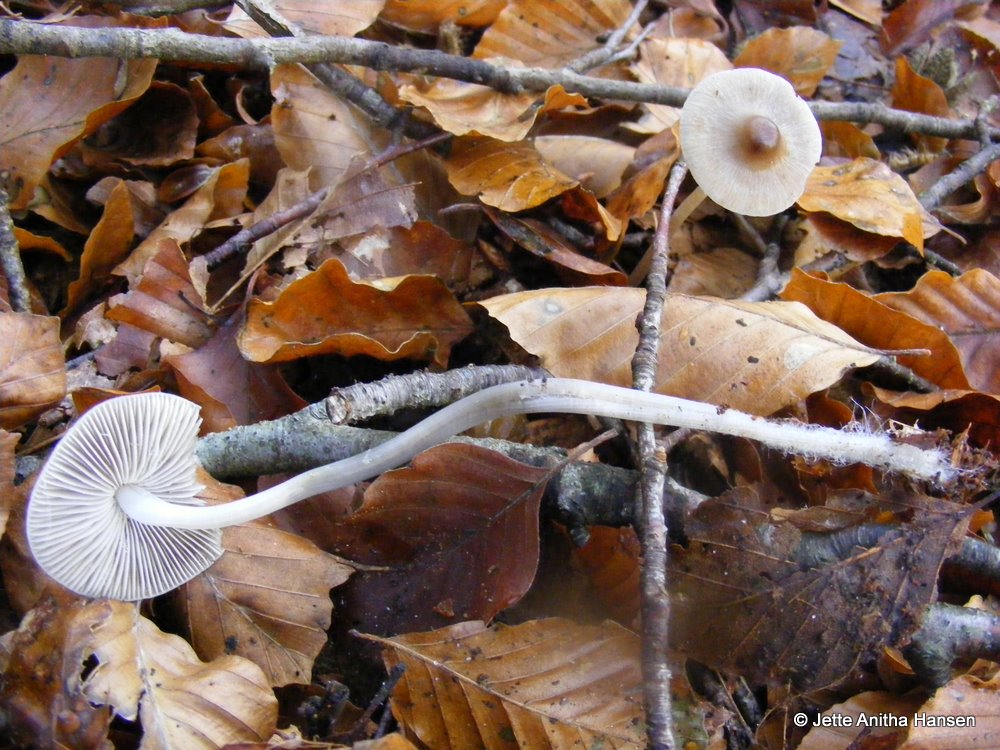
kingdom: Fungi
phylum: Basidiomycota
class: Agaricomycetes
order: Agaricales
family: Mycenaceae
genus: Mycena
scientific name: Mycena vitilis
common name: blankstokket huesvamp
